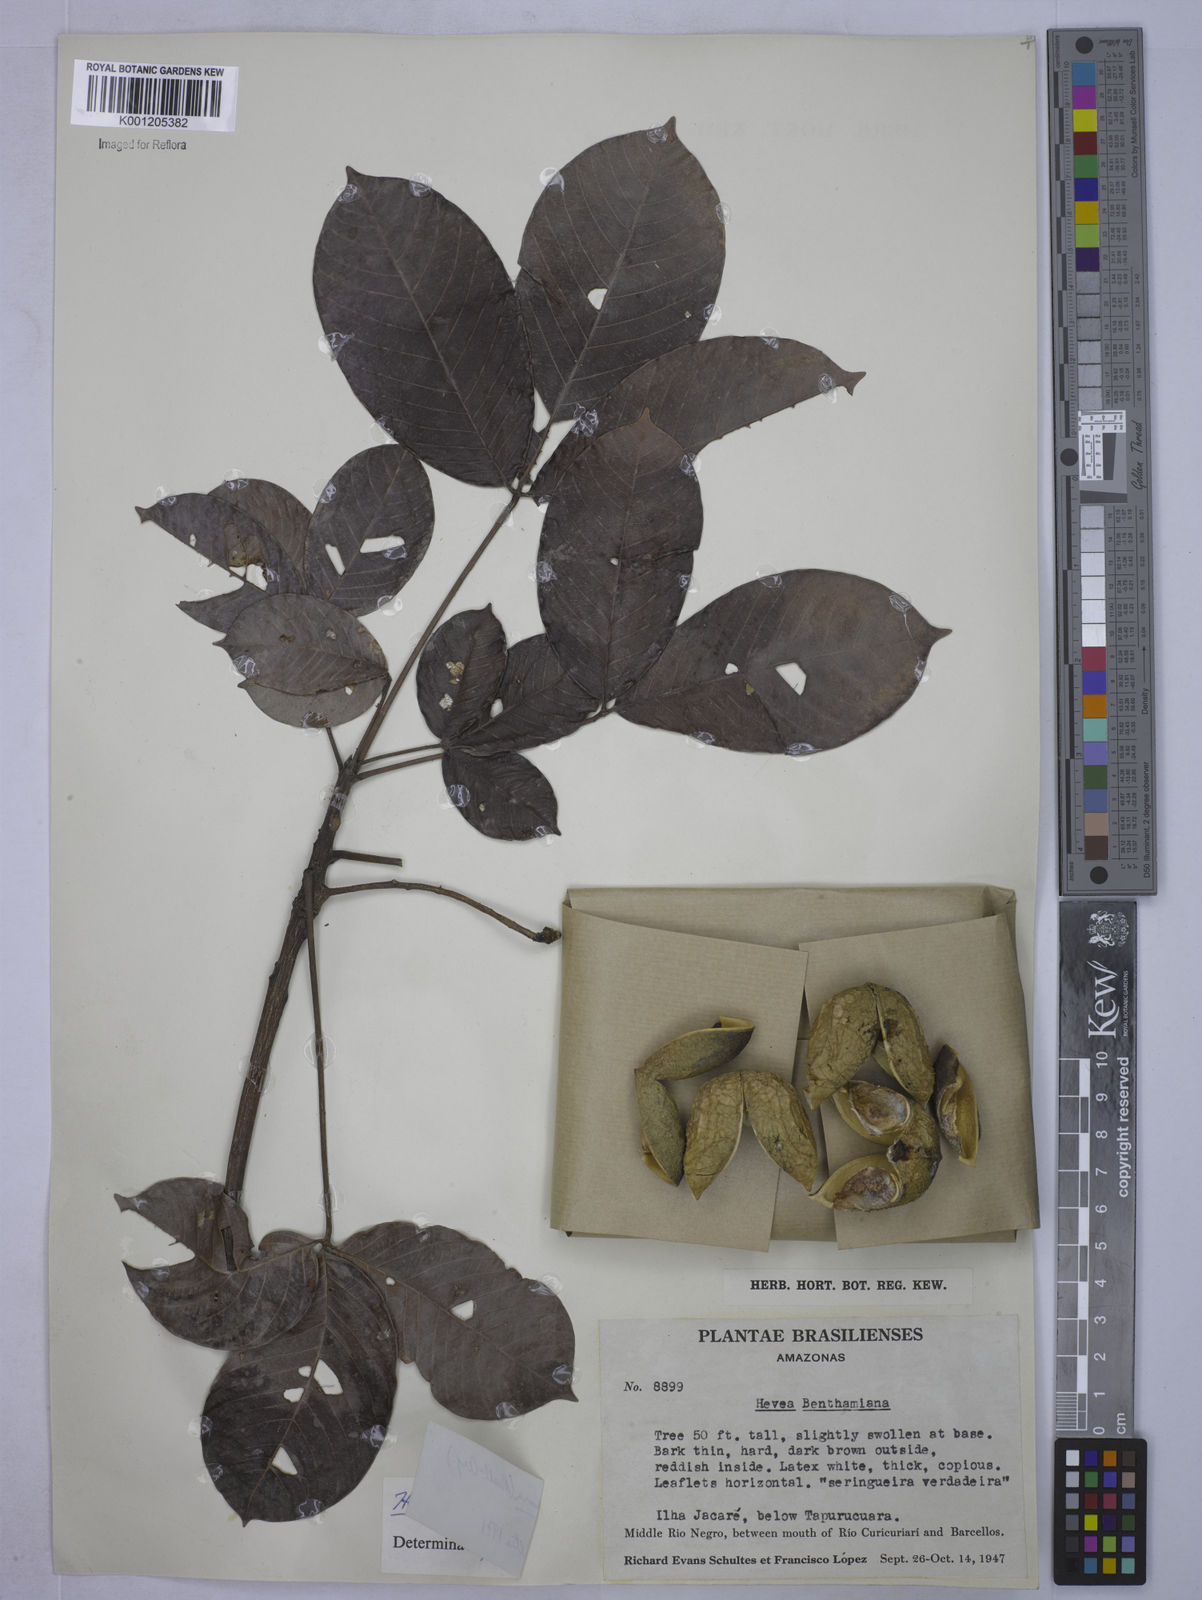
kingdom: Plantae
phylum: Tracheophyta
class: Magnoliopsida
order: Malpighiales
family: Euphorbiaceae
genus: Hevea
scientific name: Hevea
